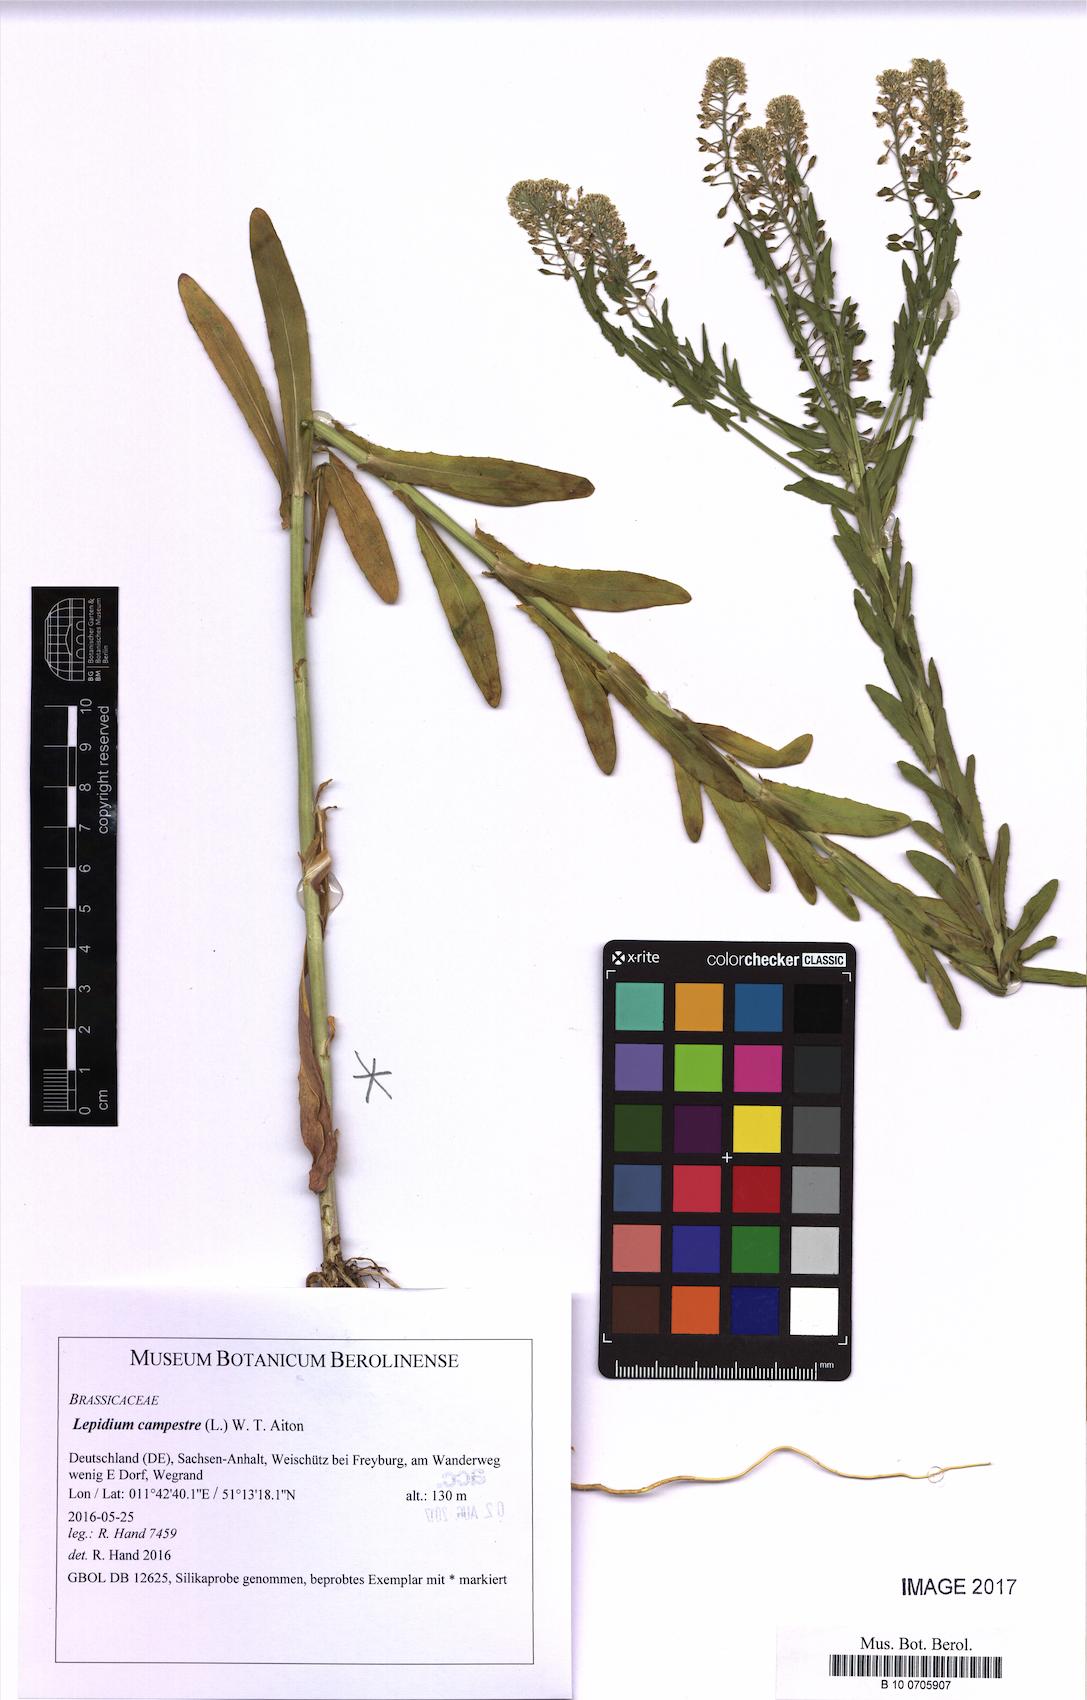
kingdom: Plantae
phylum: Tracheophyta
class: Magnoliopsida
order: Brassicales
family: Brassicaceae
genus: Lepidium
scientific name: Lepidium campestre
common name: Field pepperwort
